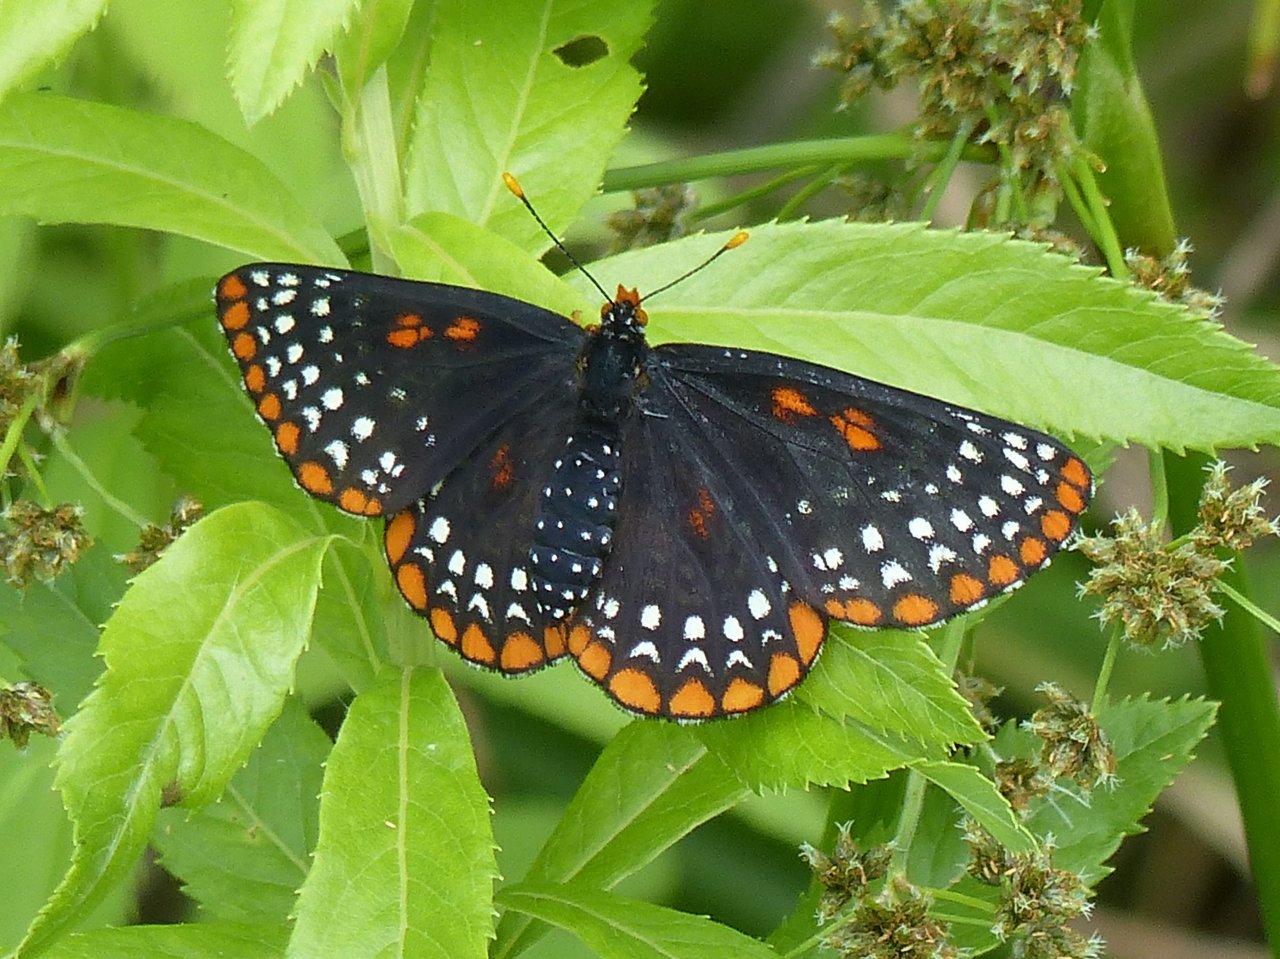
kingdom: Animalia
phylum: Arthropoda
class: Insecta
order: Lepidoptera
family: Nymphalidae
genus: Euphydryas
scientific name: Euphydryas phaeton
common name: Baltimore Checkerspot
